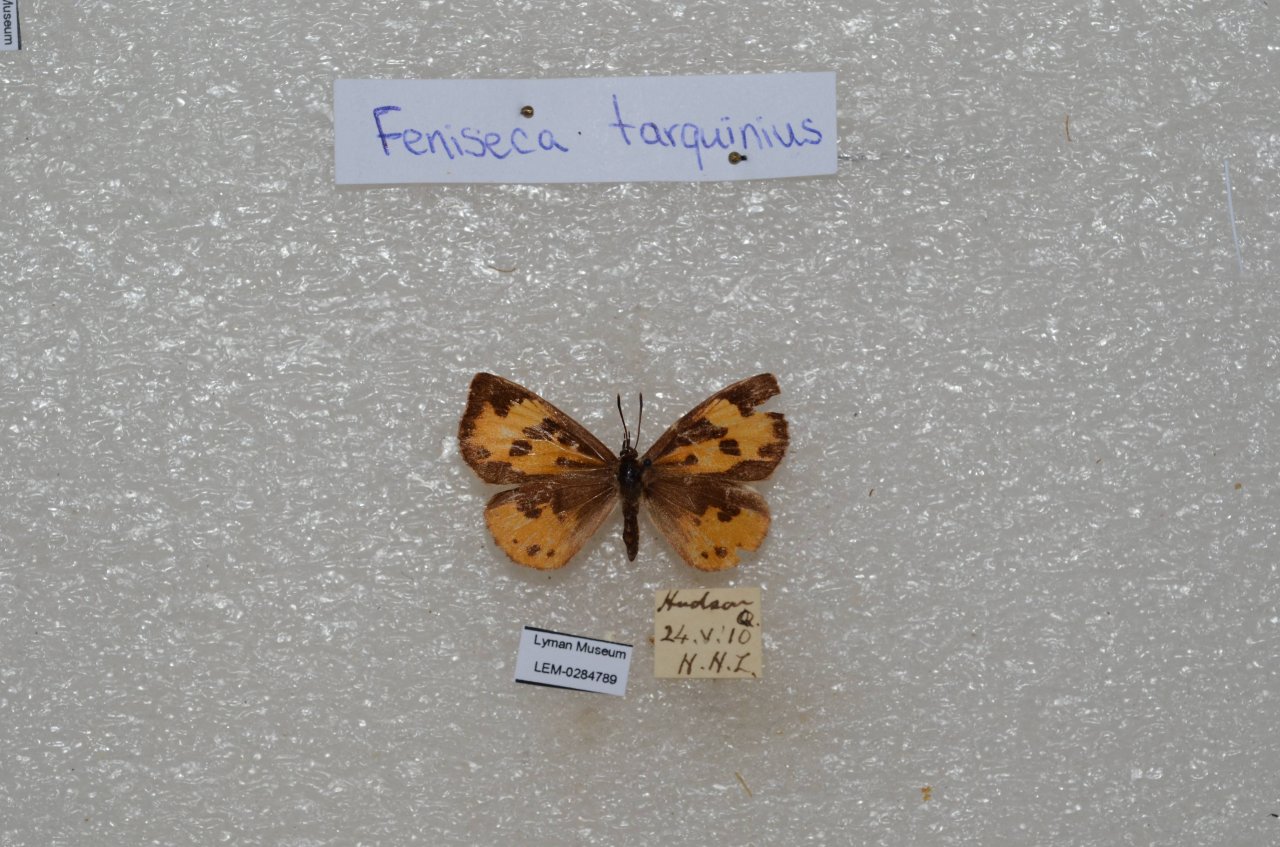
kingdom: Animalia
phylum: Arthropoda
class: Insecta
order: Lepidoptera
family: Lycaenidae
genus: Feniseca
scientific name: Feniseca tarquinius
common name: Harvester
